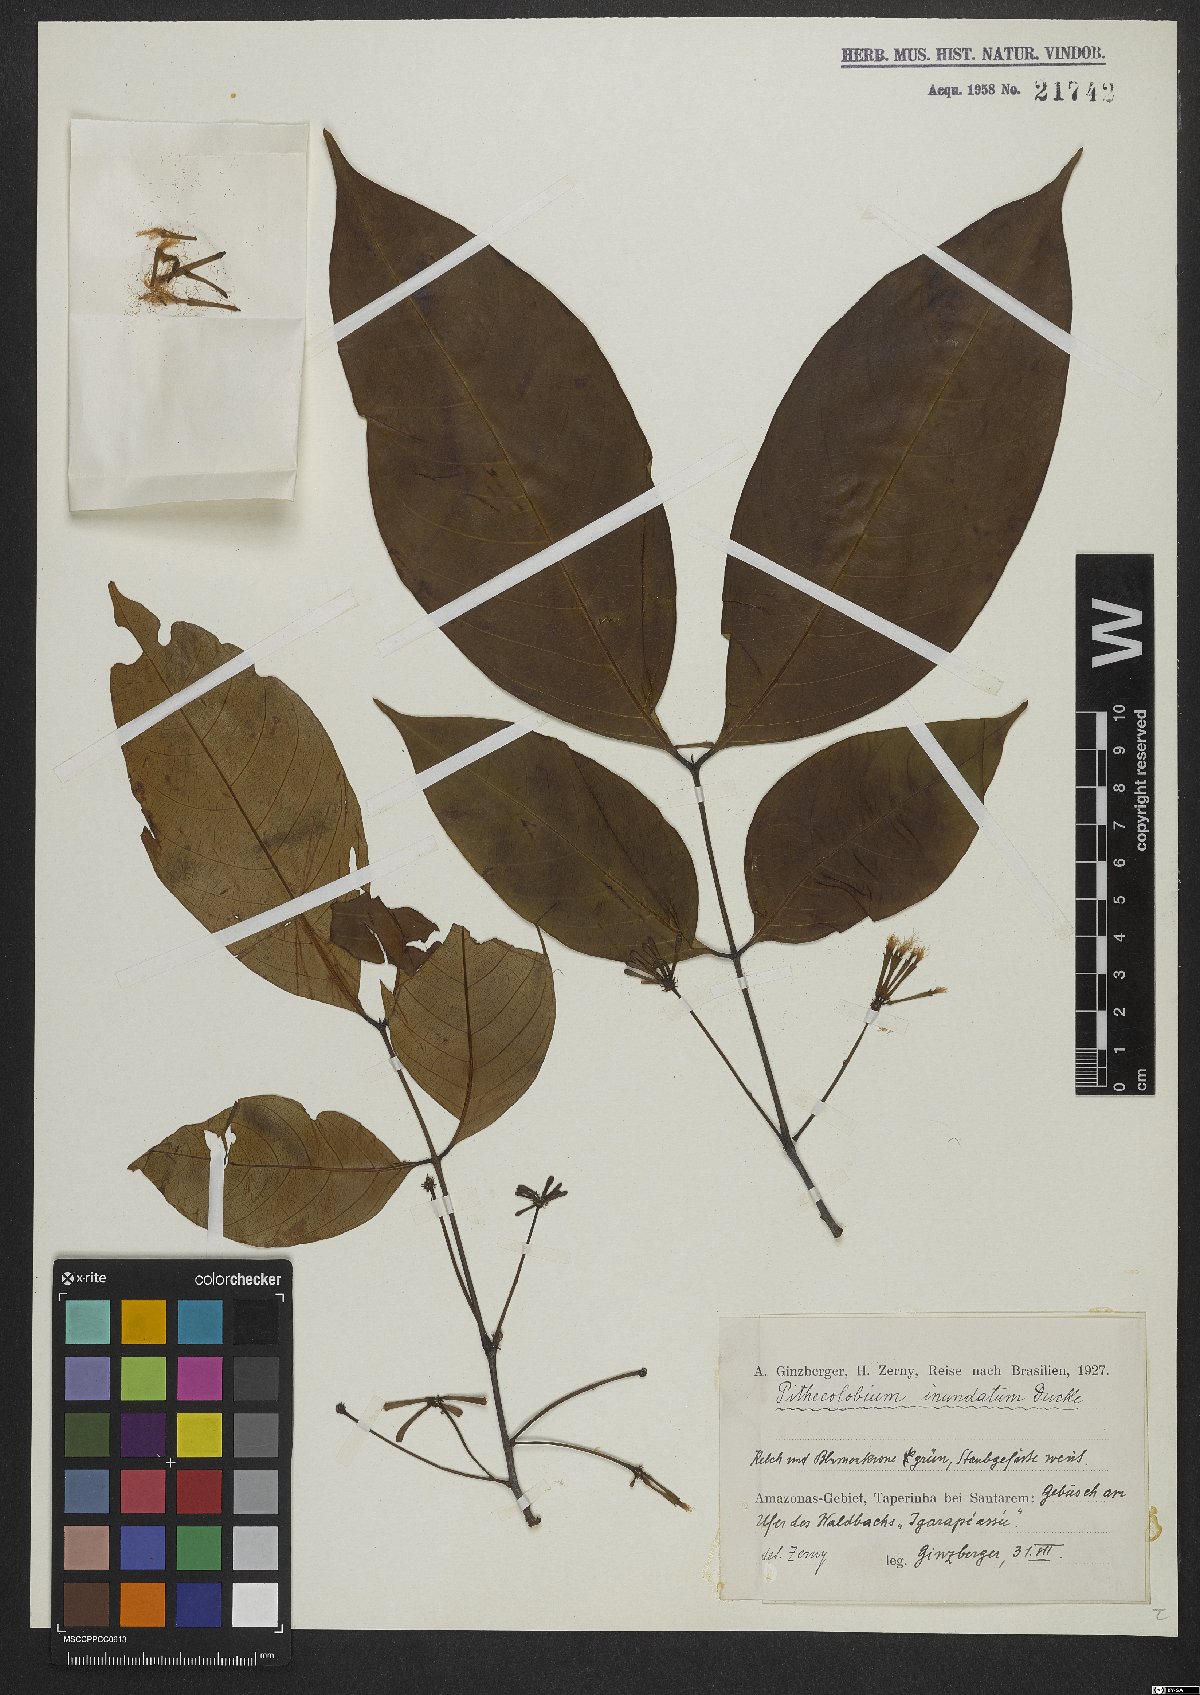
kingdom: Plantae
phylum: Tracheophyta
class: Magnoliopsida
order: Fabales
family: Fabaceae
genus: Inga
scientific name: Inga inundata
